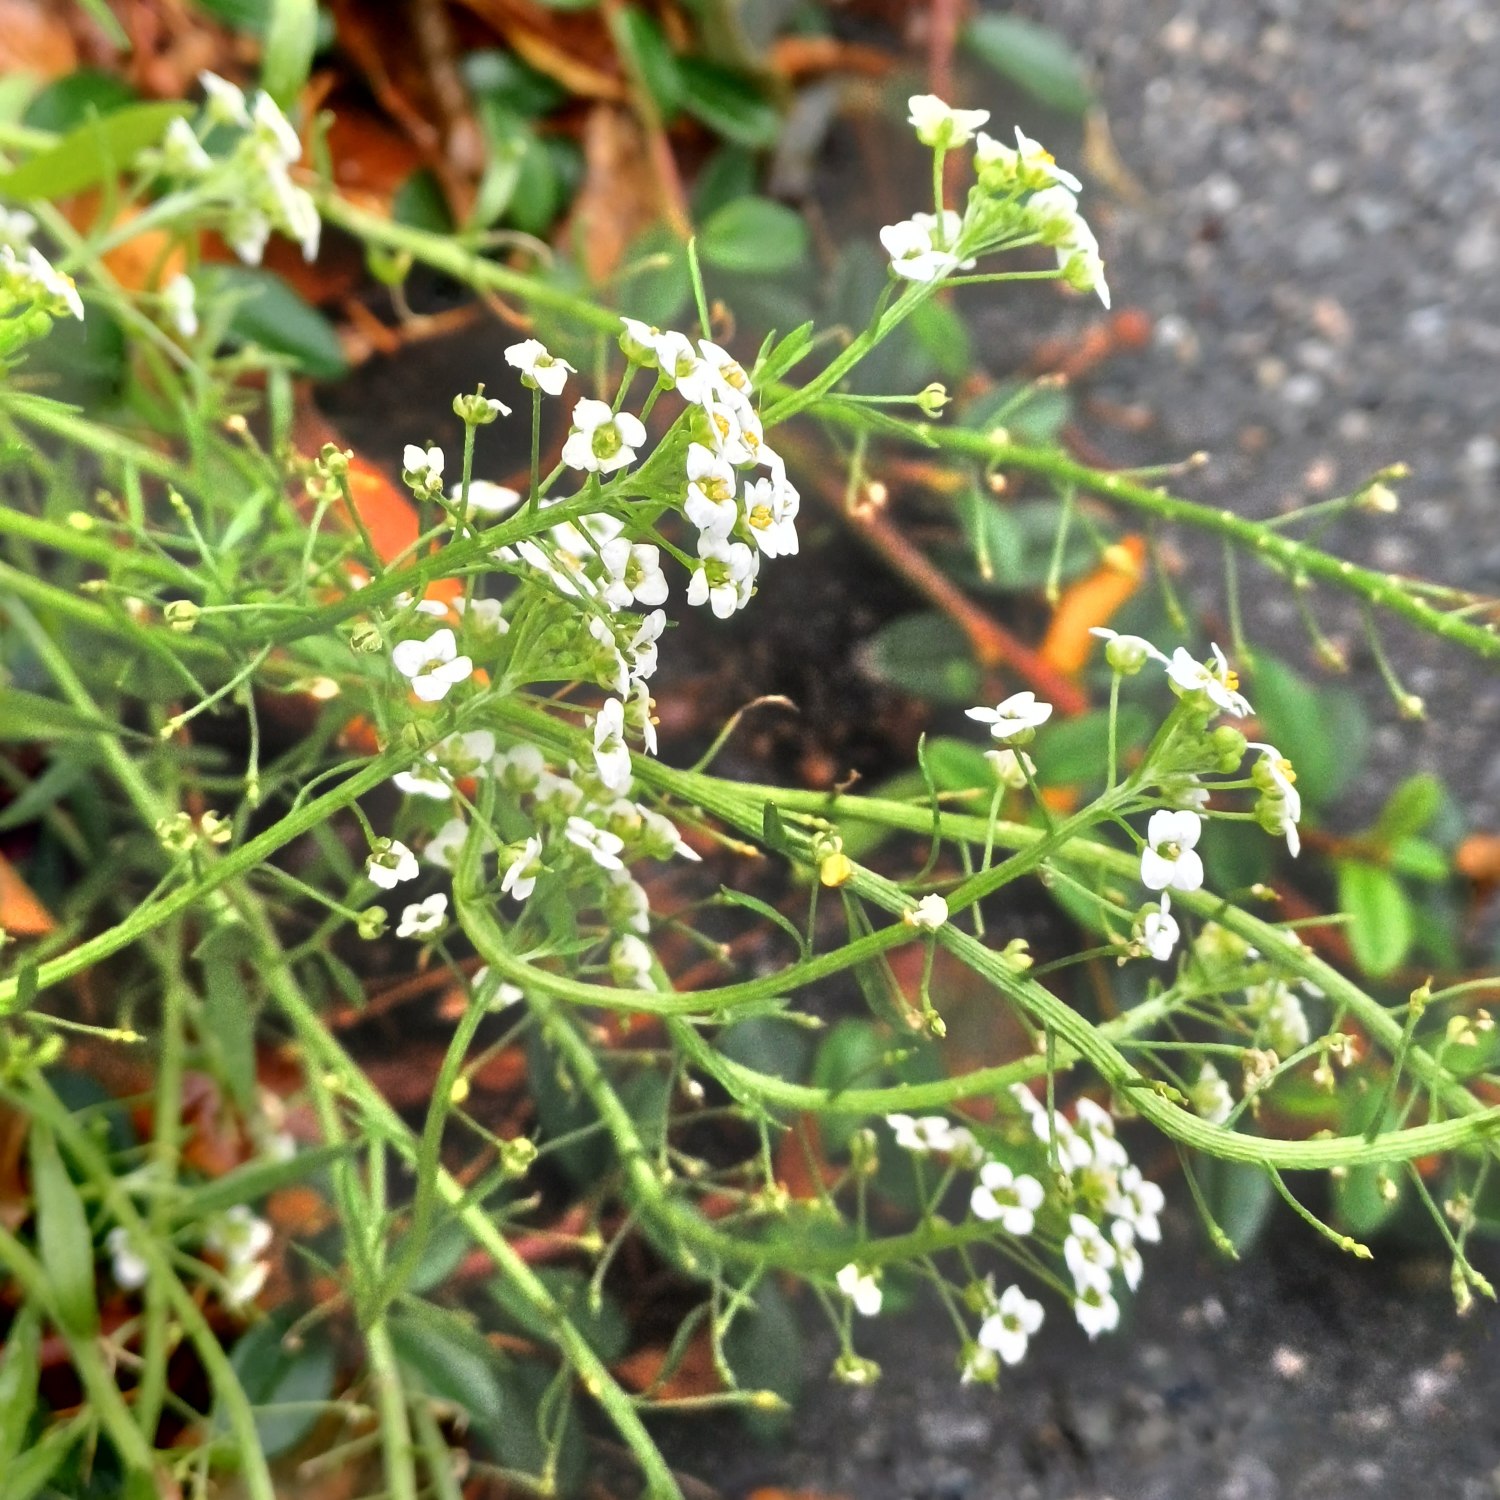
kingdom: Plantae
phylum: Tracheophyta
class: Magnoliopsida
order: Brassicales
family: Brassicaceae
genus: Lobularia
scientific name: Lobularia maritima
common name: Biblomme
